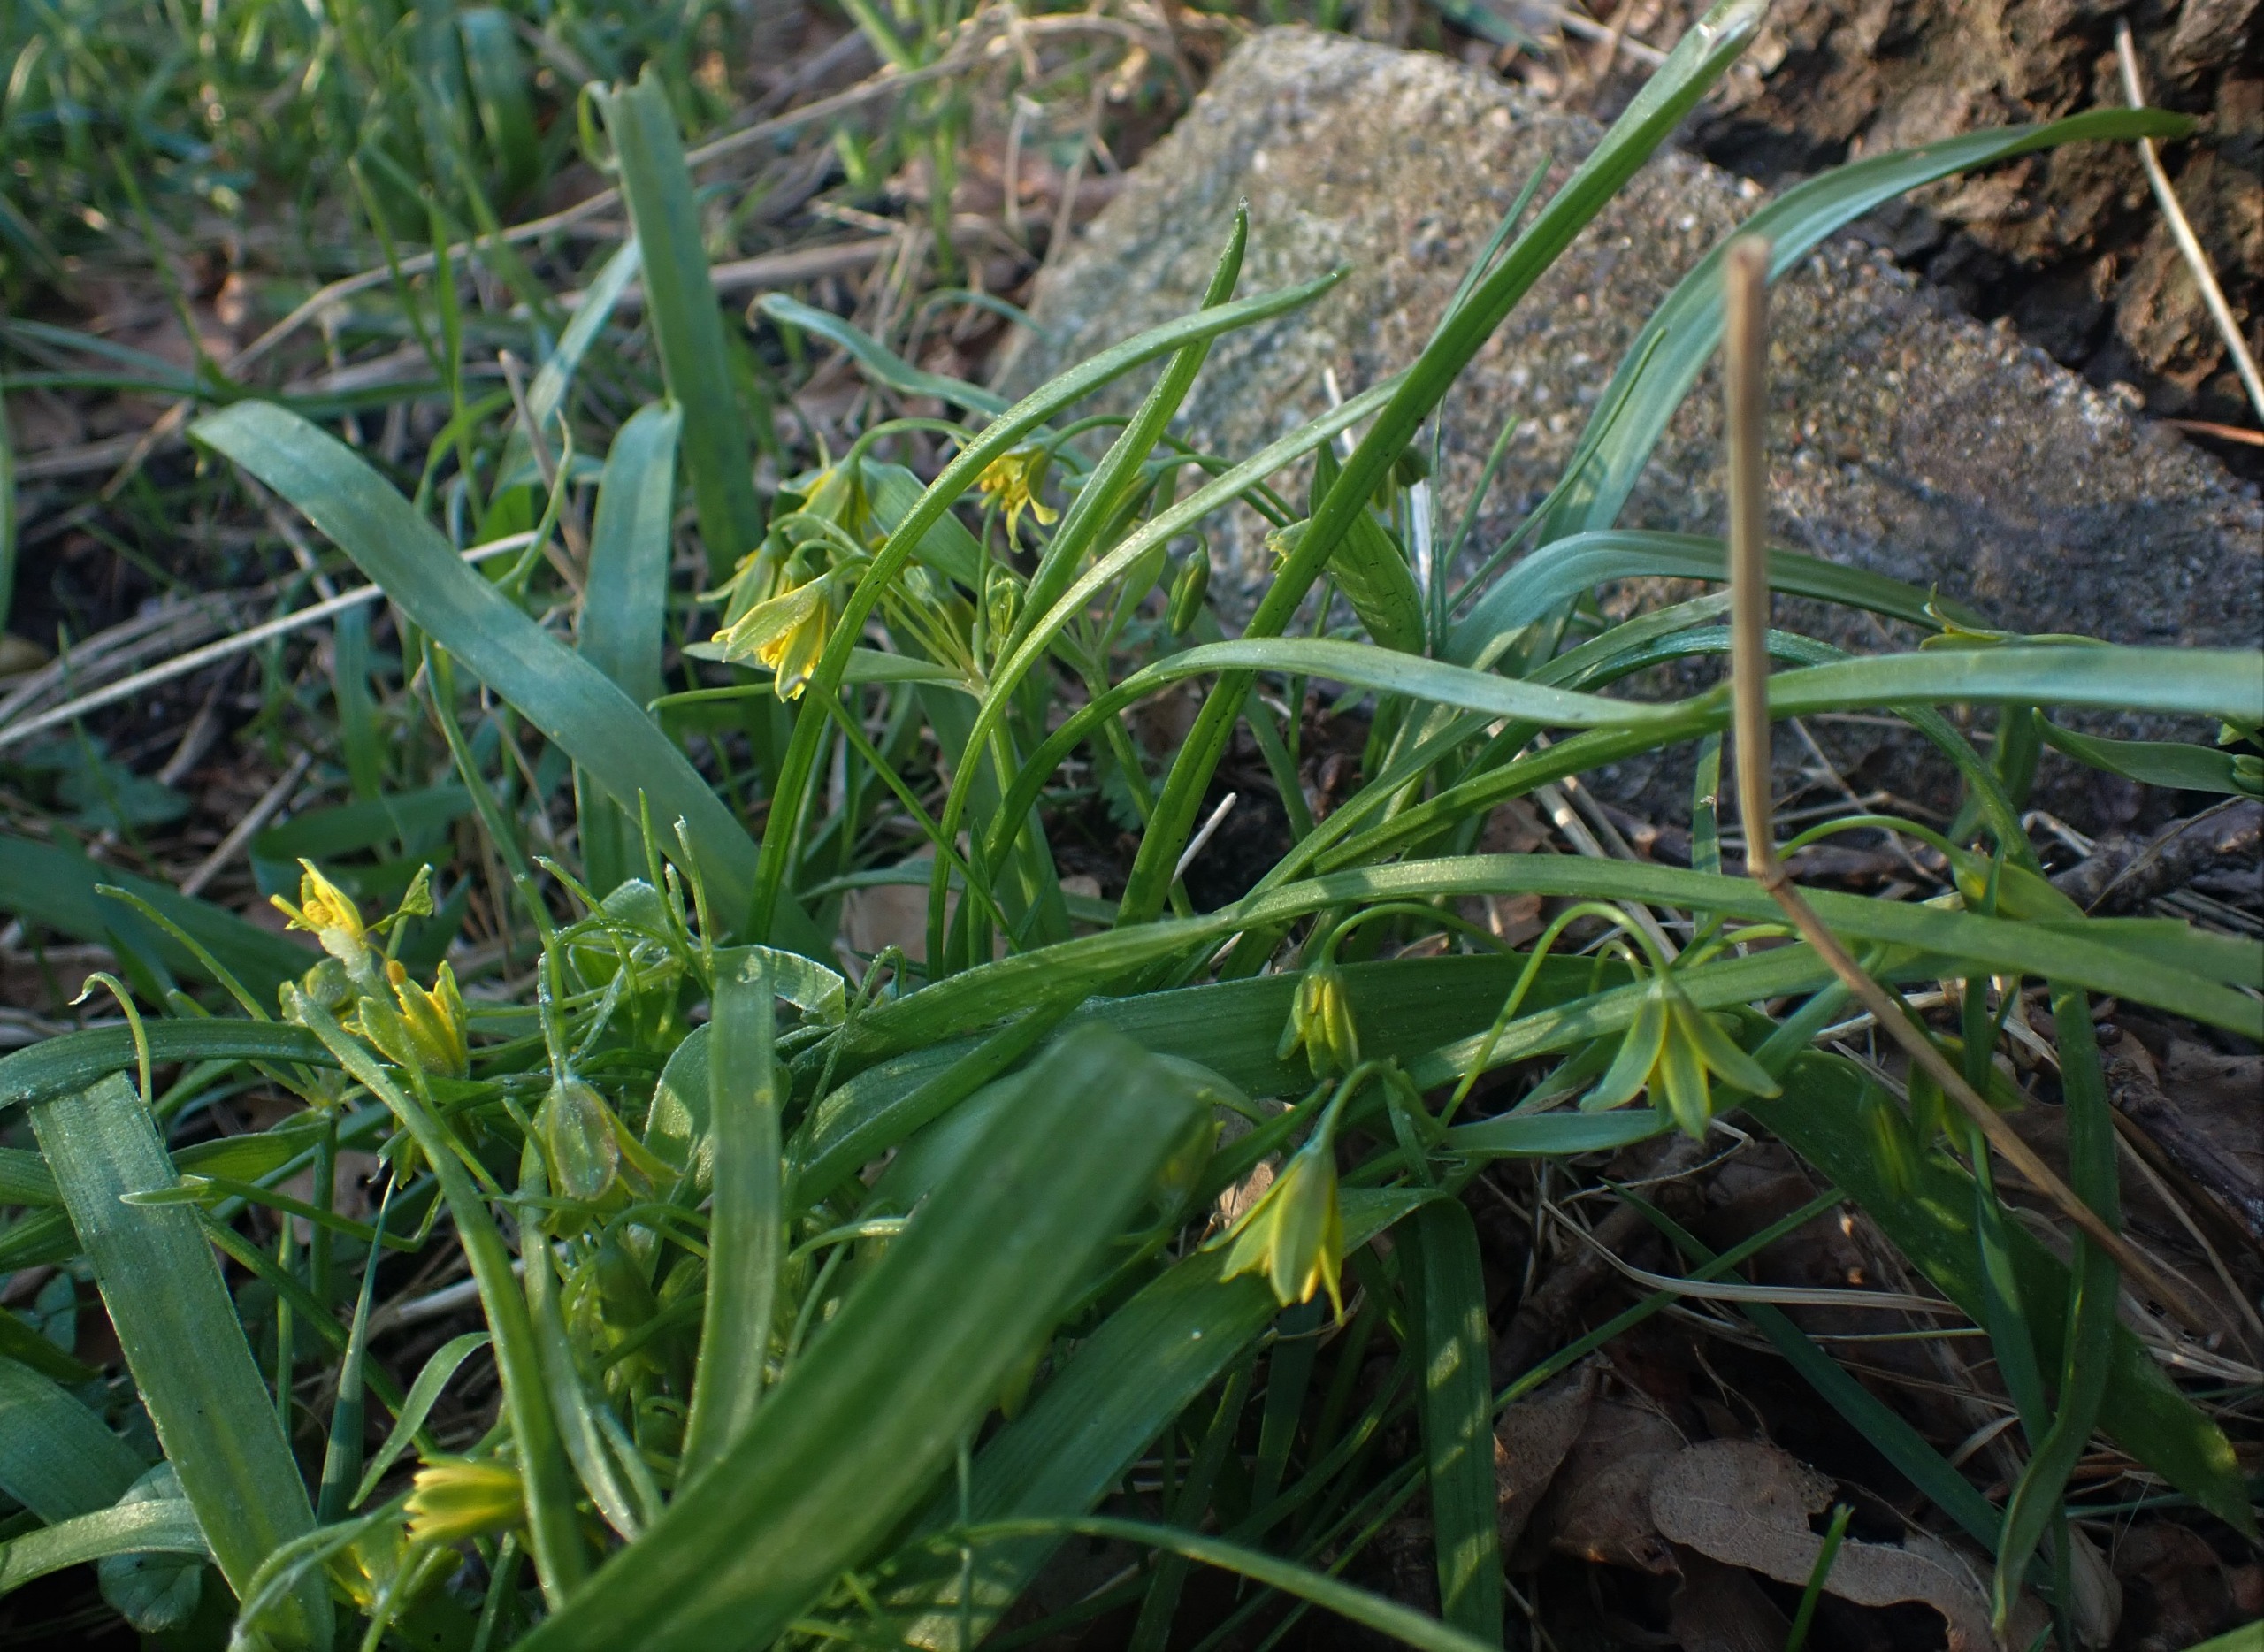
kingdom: Plantae
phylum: Tracheophyta
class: Liliopsida
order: Liliales
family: Liliaceae
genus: Gagea
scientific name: Gagea lutea
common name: Almindelig guldstjerne
